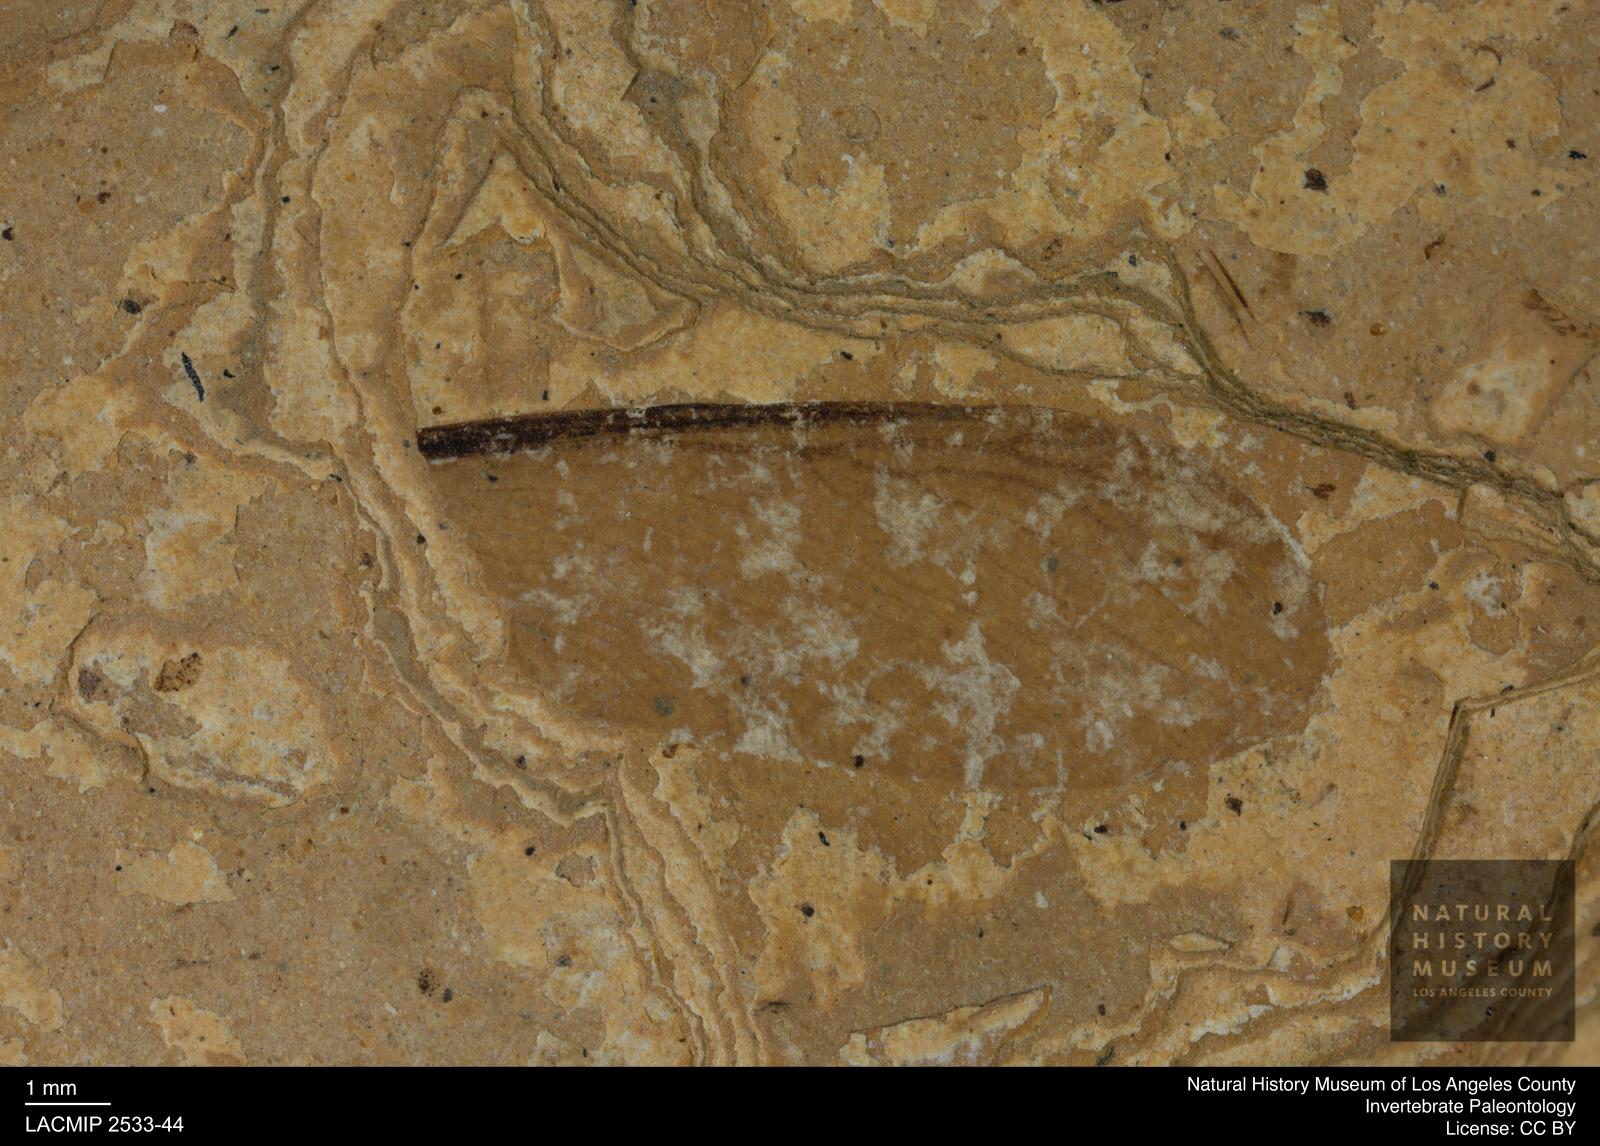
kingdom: Animalia
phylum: Arthropoda
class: Insecta
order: Blattodea
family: Hodotermitidae
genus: Ulmeriella
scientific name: Ulmeriella bauckhorni
